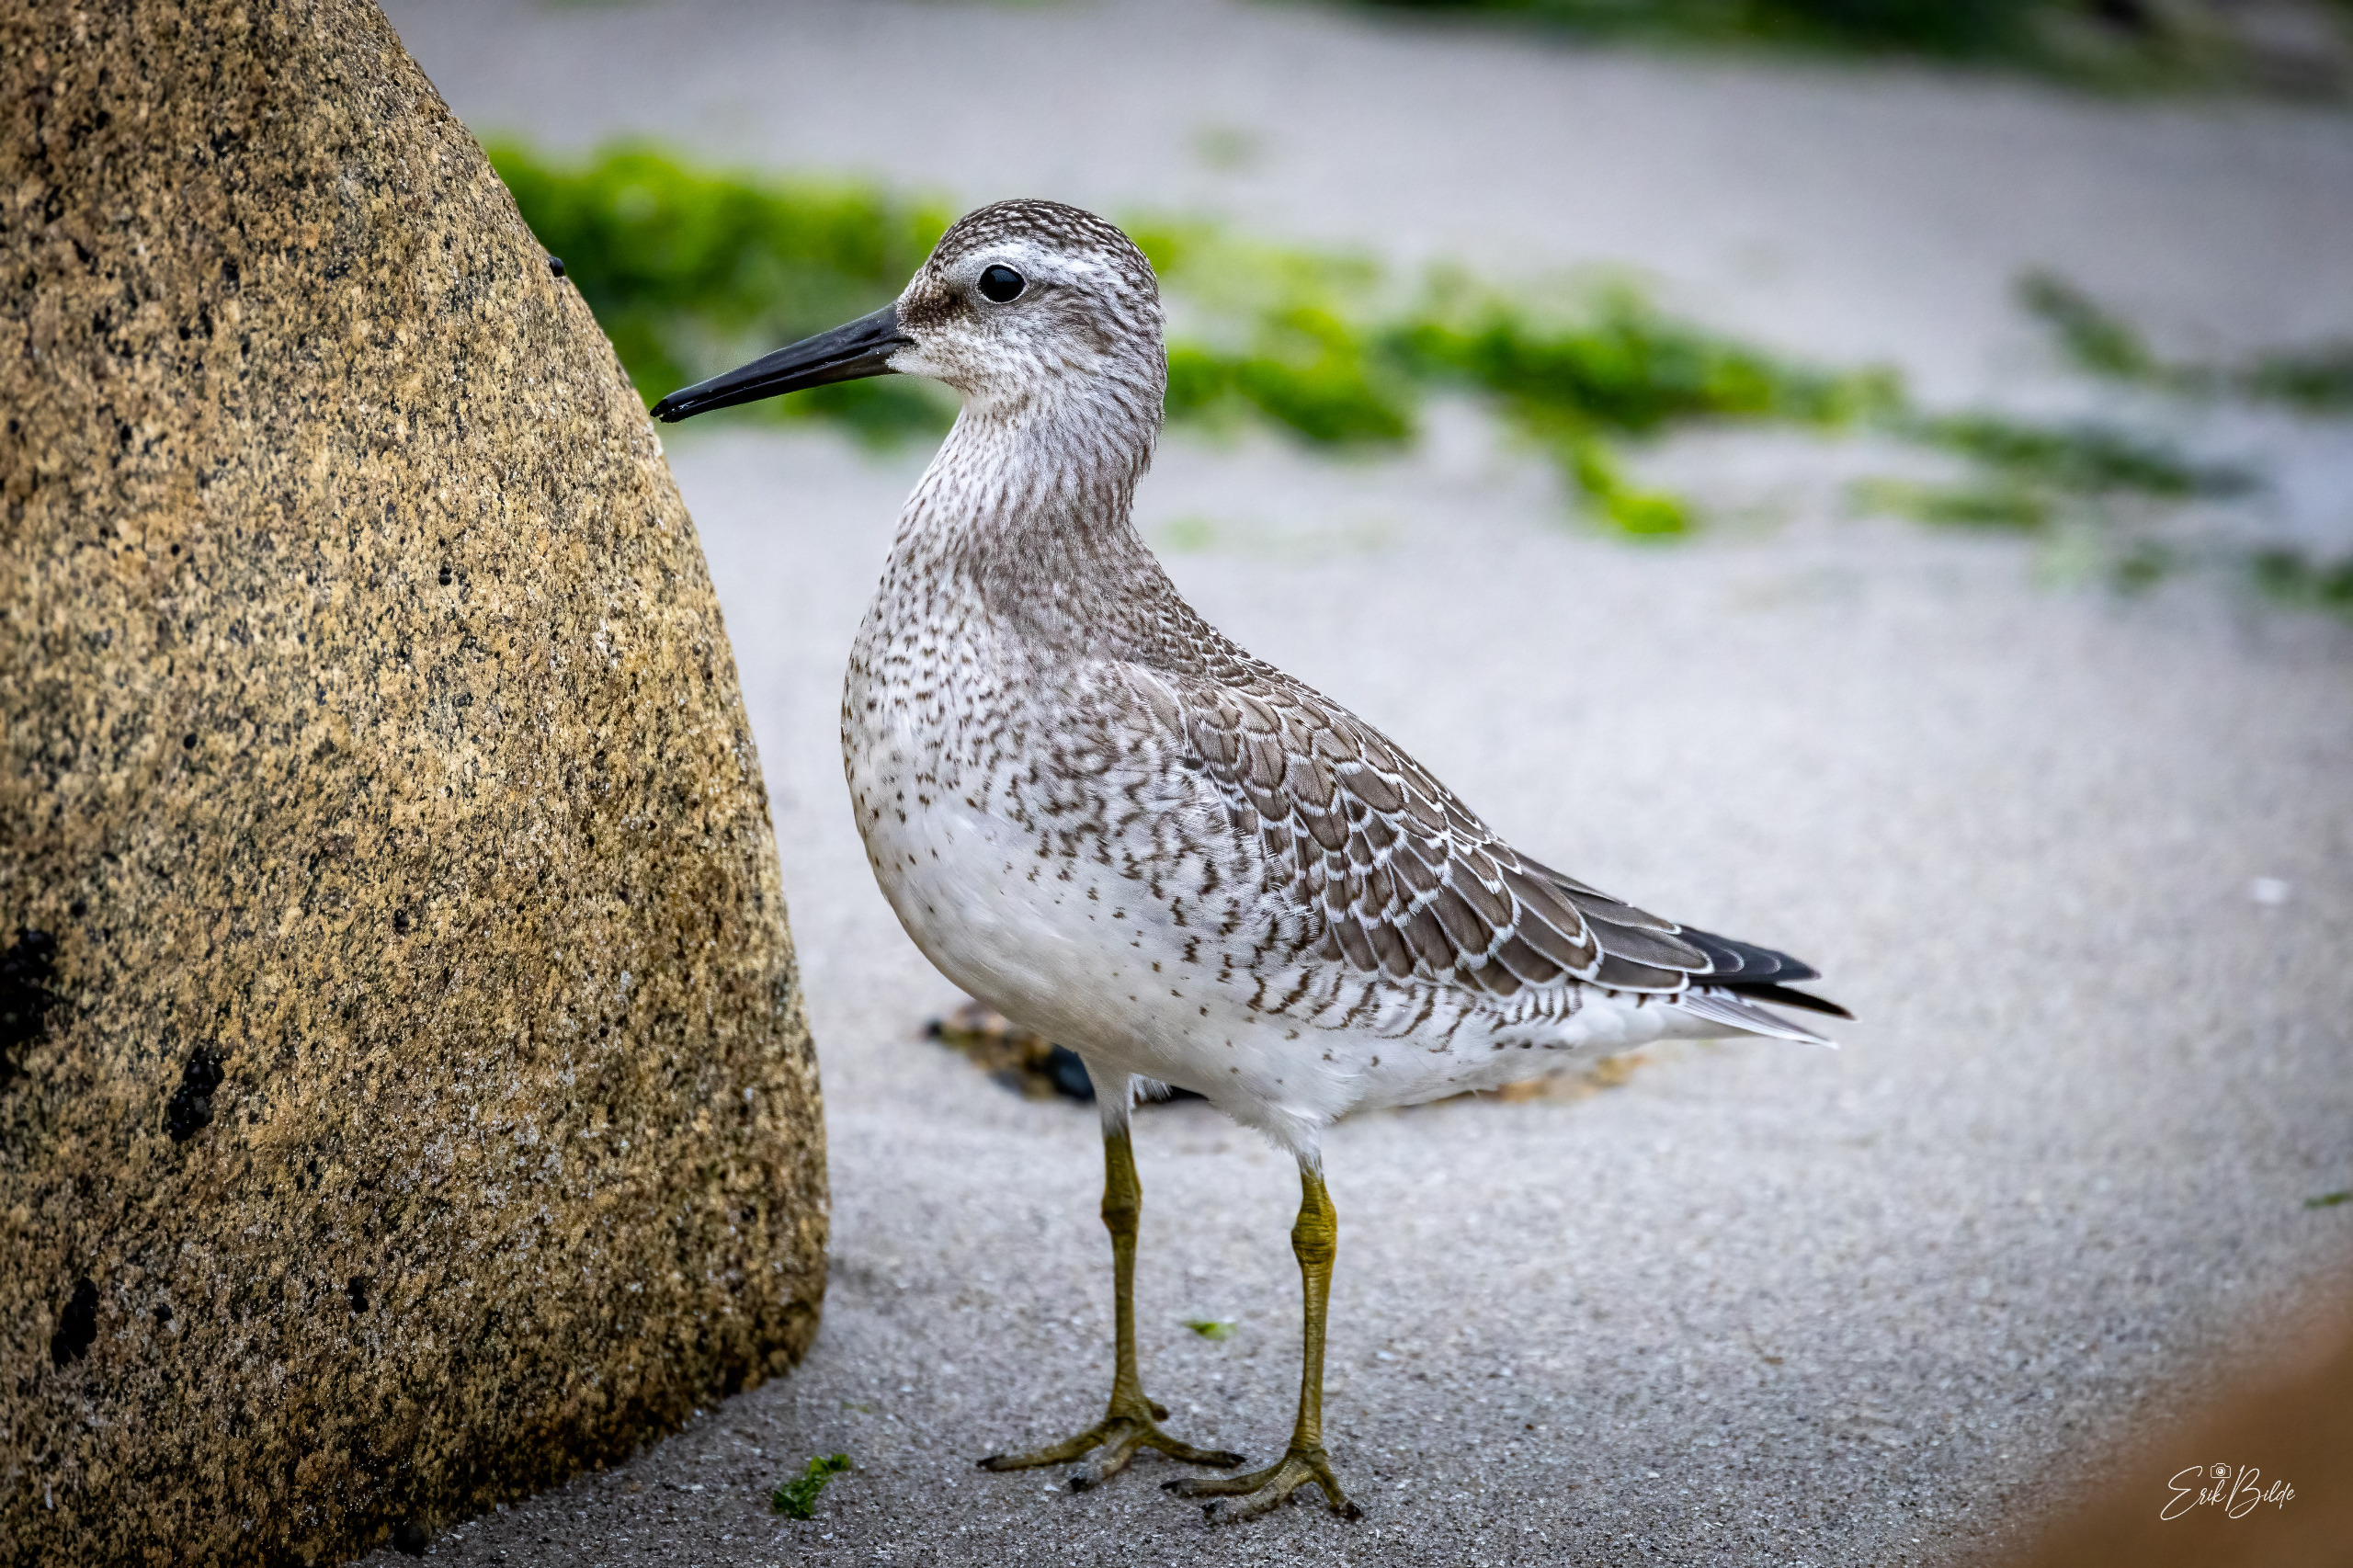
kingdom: Animalia
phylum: Chordata
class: Aves
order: Charadriiformes
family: Scolopacidae
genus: Calidris
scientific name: Calidris canutus
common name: Islandsk ryle
